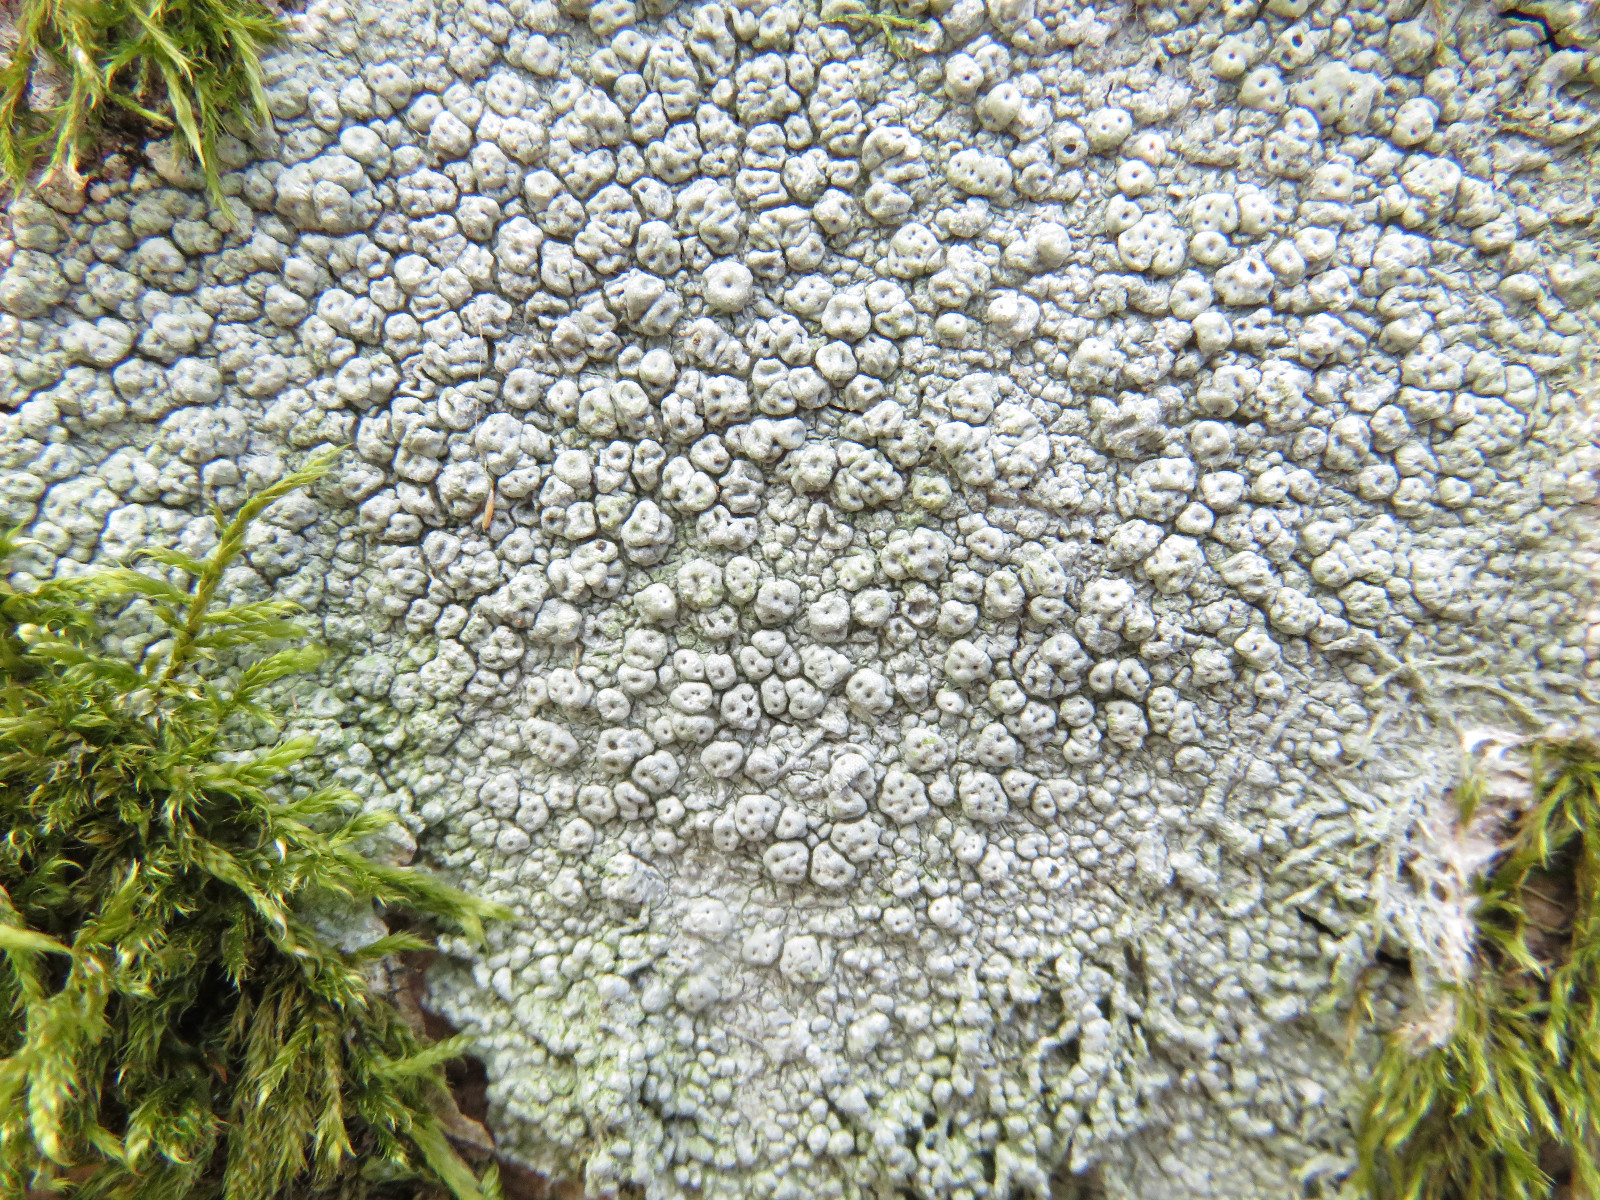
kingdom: Fungi
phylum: Ascomycota
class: Lecanoromycetes
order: Pertusariales
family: Pertusariaceae
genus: Pertusaria
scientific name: Pertusaria pertusa
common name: almindelig prikvortelav
